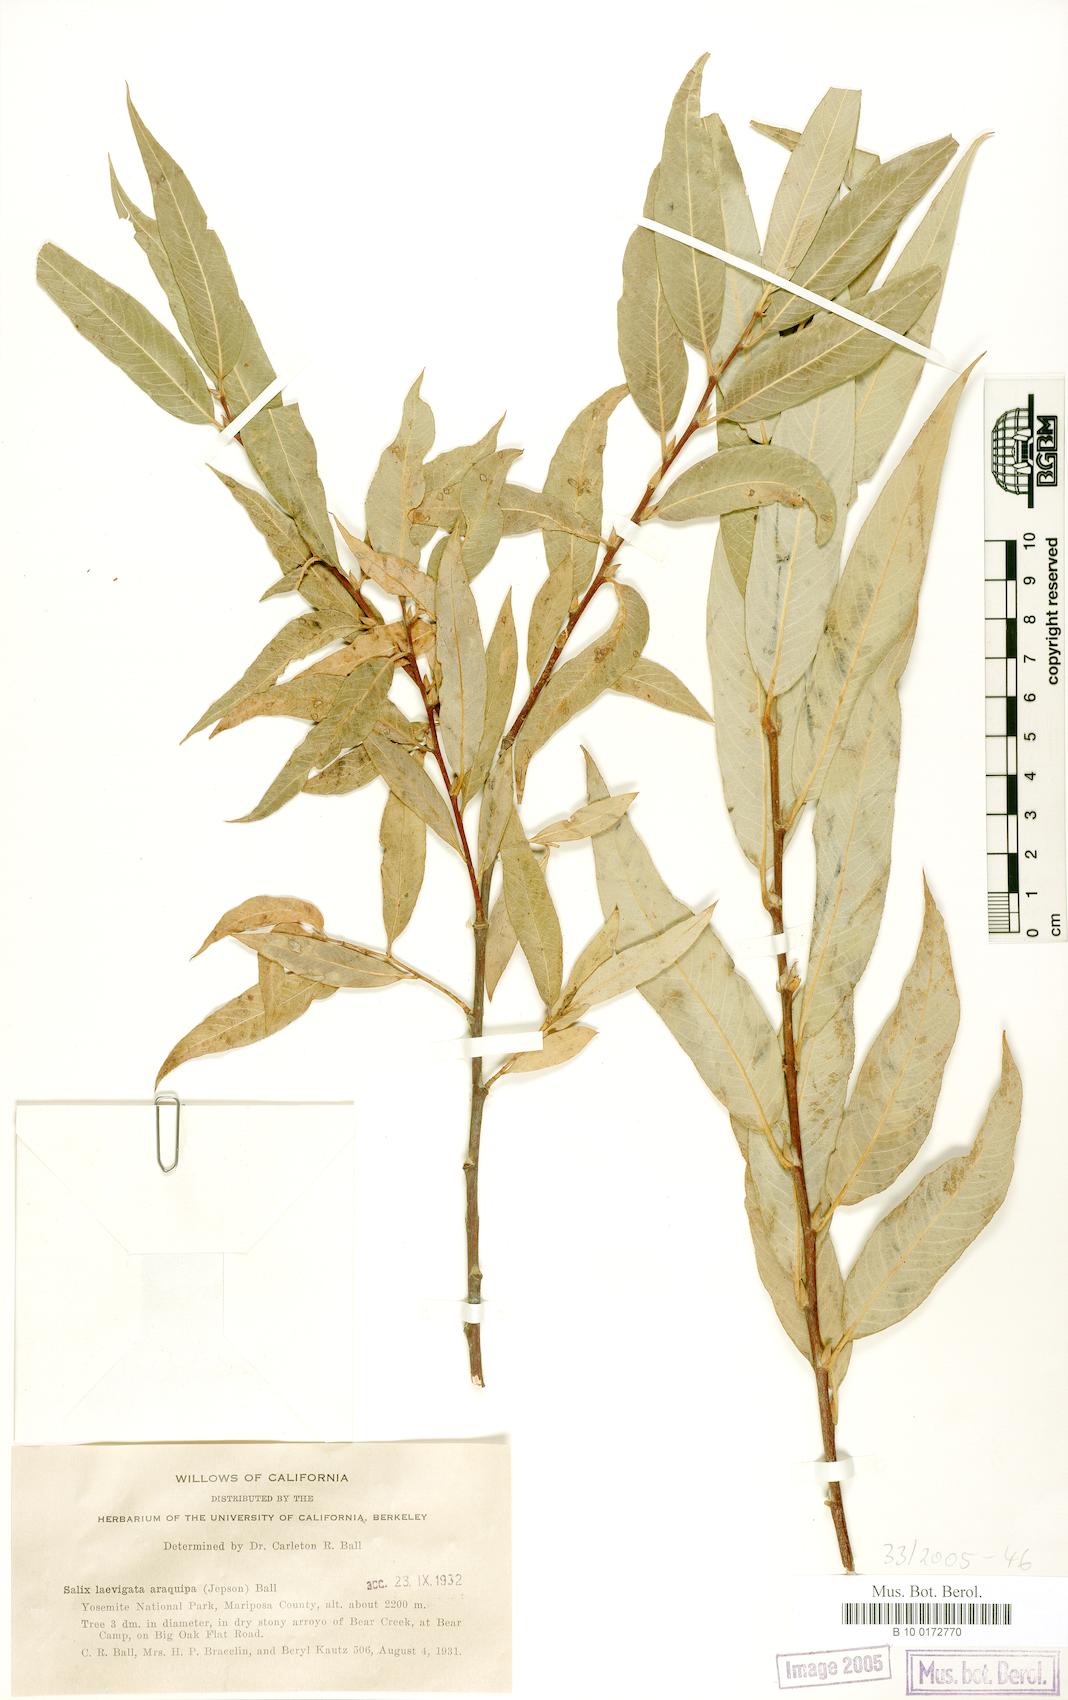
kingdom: Plantae
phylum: Tracheophyta
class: Magnoliopsida
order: Malpighiales
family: Salicaceae
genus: Salix
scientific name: Salix laevigata
